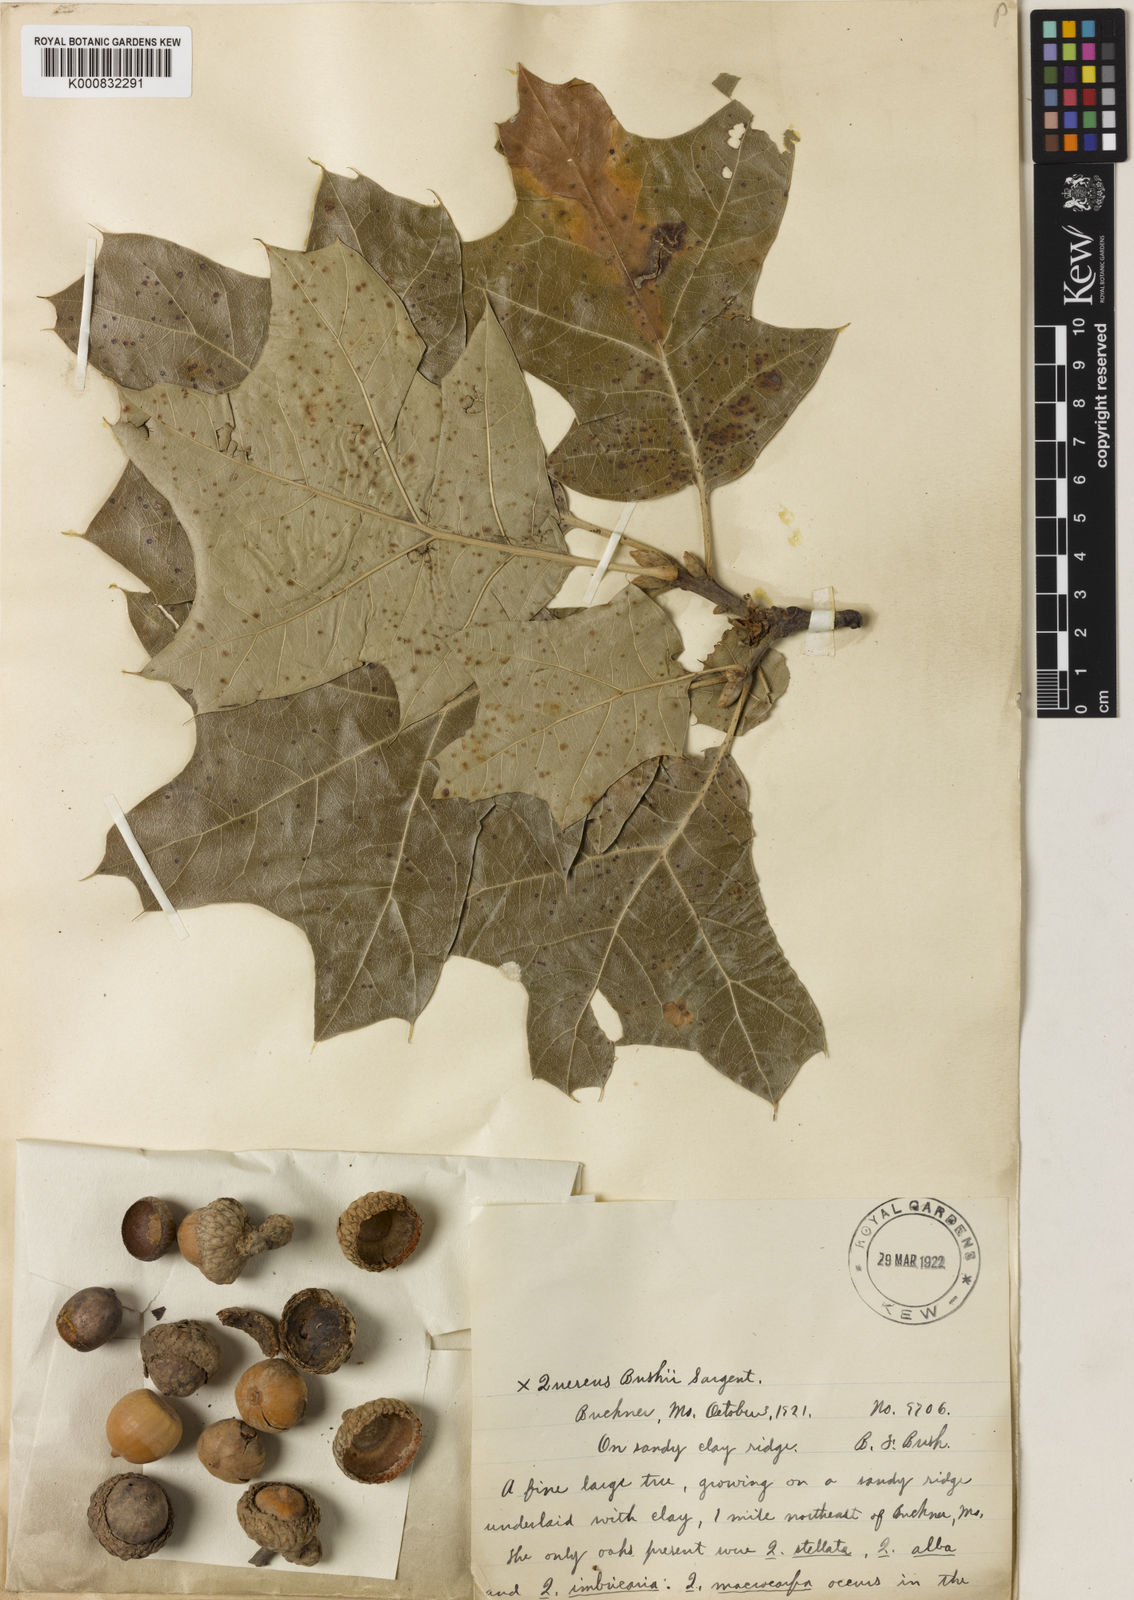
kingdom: Plantae
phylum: Tracheophyta
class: Magnoliopsida
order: Fagales
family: Fagaceae
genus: Quercus
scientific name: Quercus bushii
